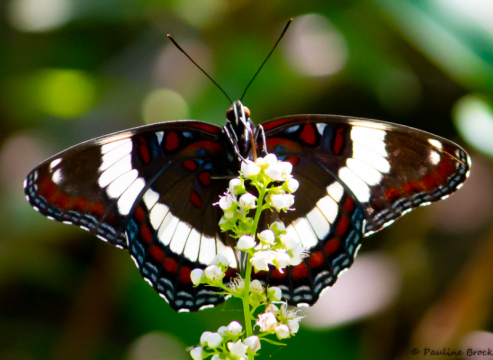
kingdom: Animalia
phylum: Arthropoda
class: Insecta
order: Lepidoptera
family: Nymphalidae
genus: Limenitis
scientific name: Limenitis arthemis
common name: Red-spotted Admiral
